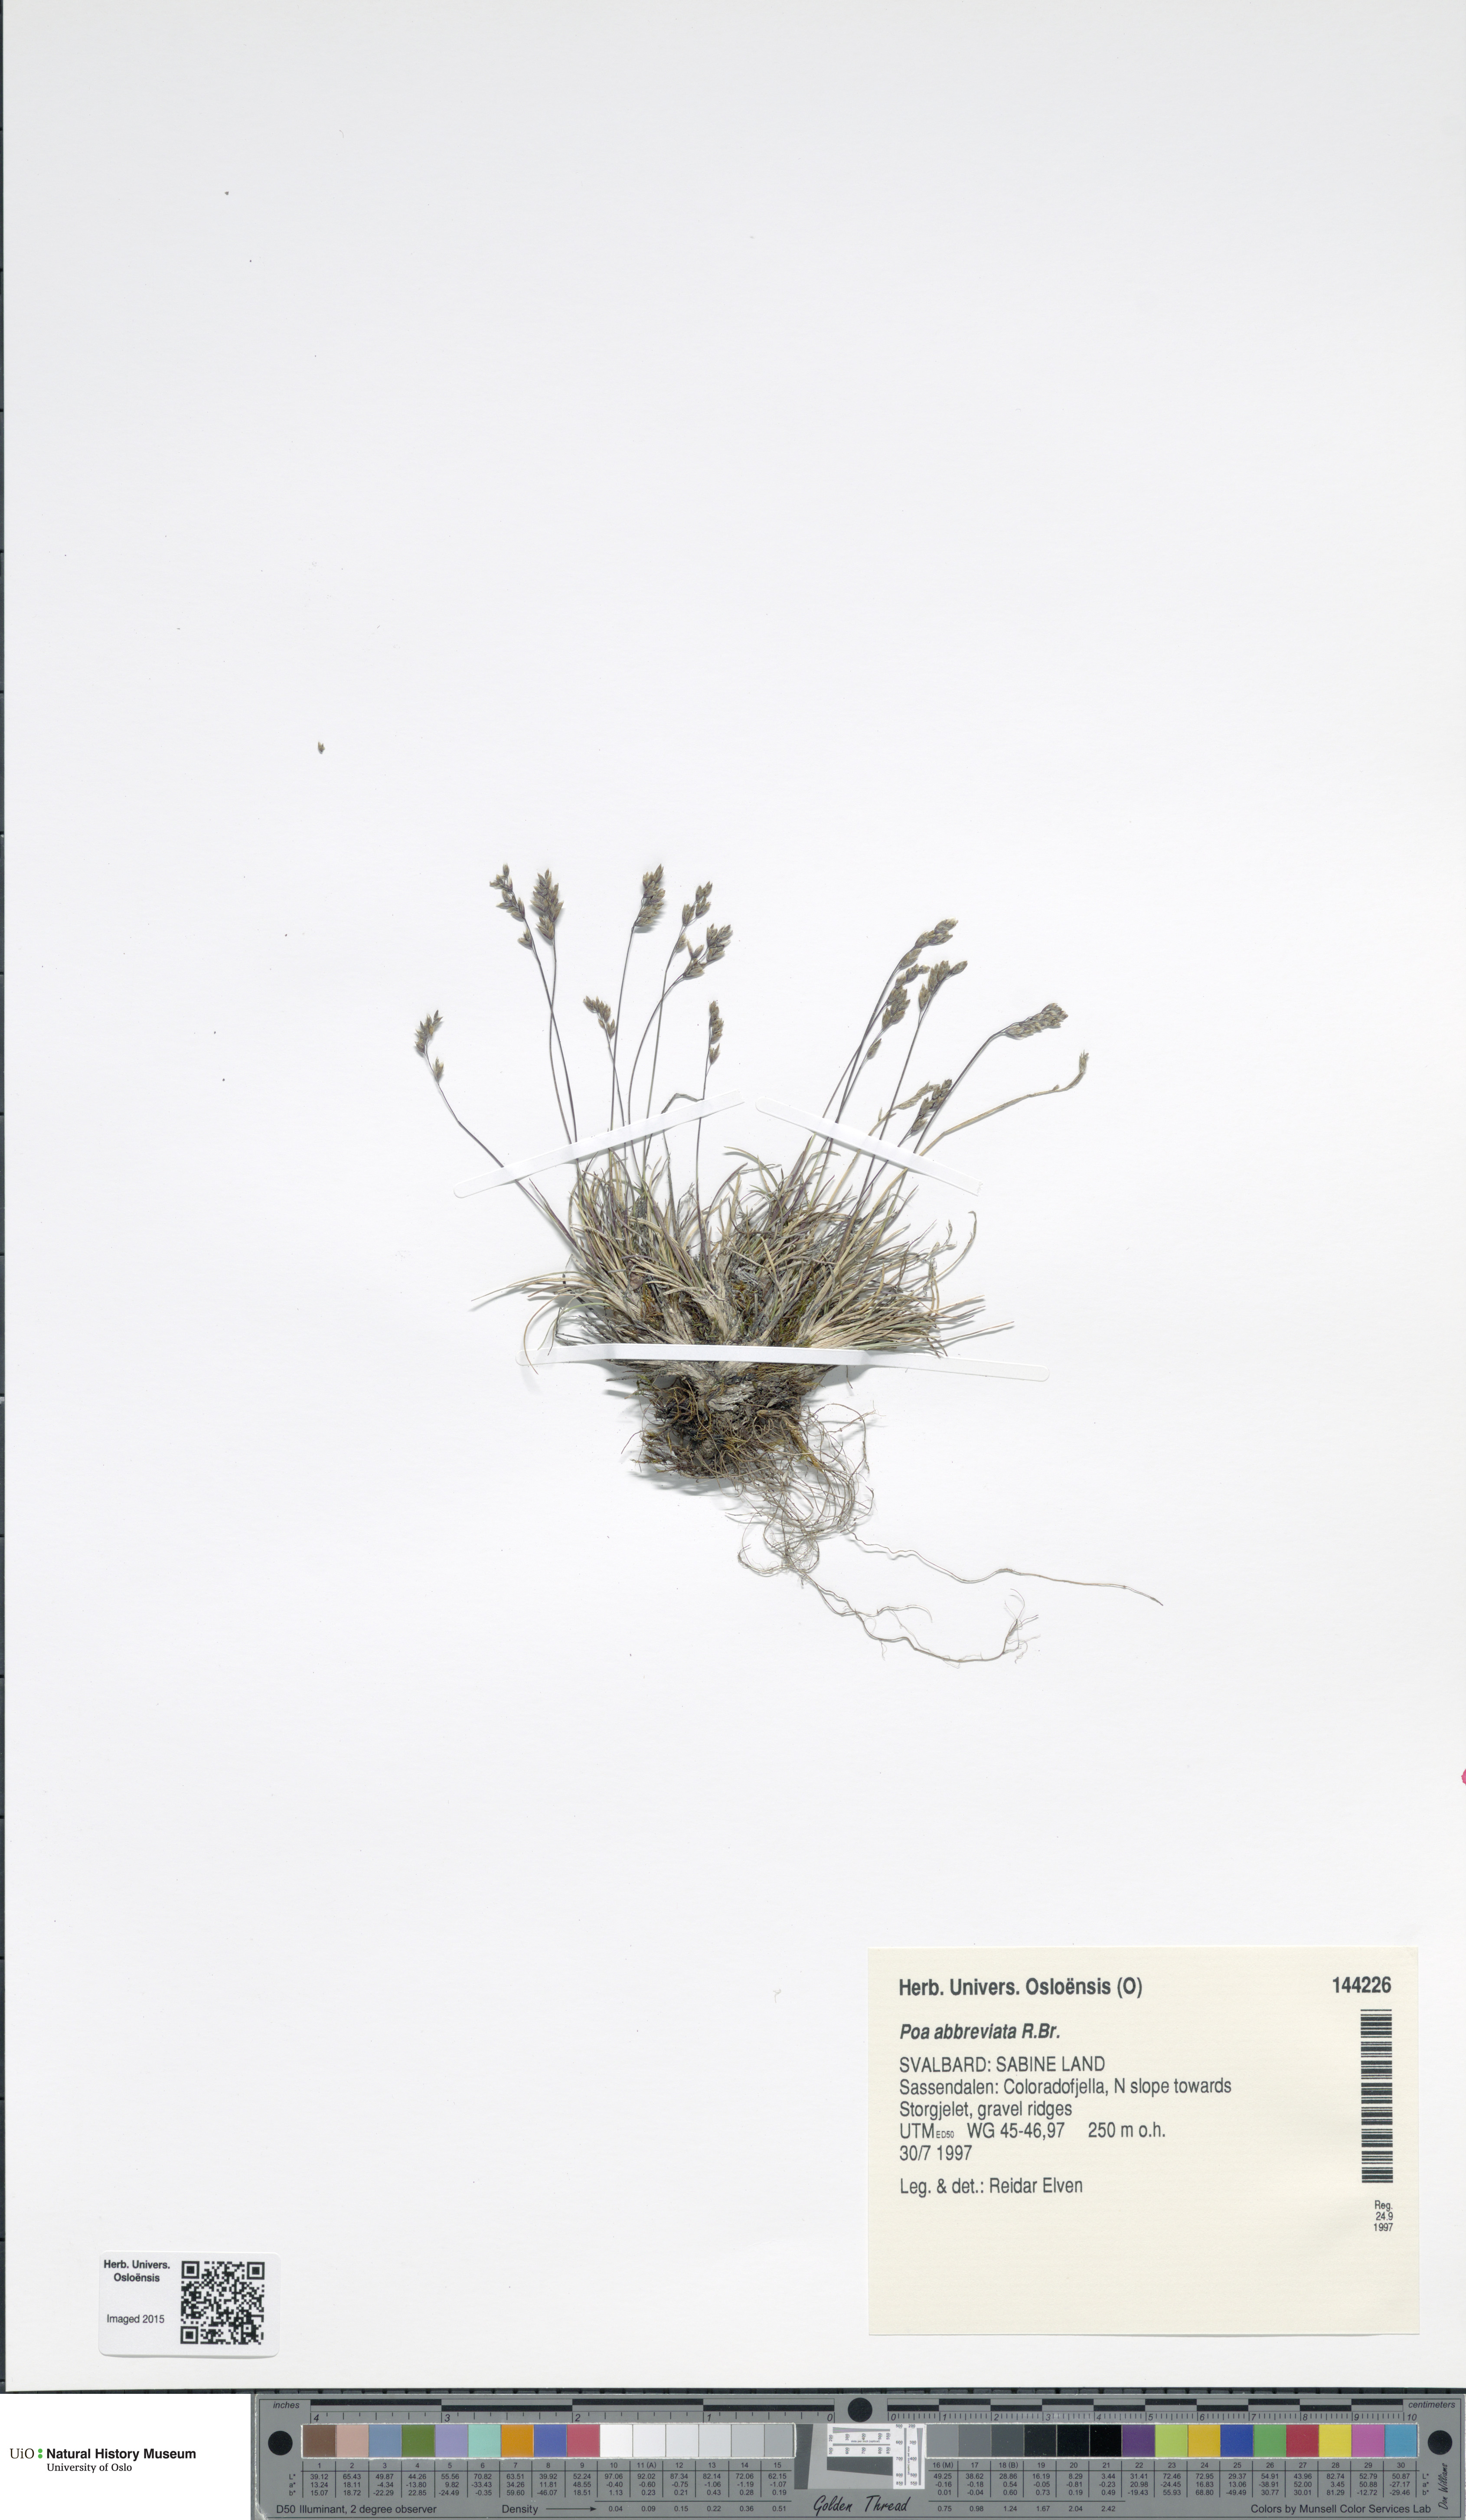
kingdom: Plantae
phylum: Tracheophyta
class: Liliopsida
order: Poales
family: Poaceae
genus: Poa
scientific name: Poa abbreviata
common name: Abbreviated bluegrass
